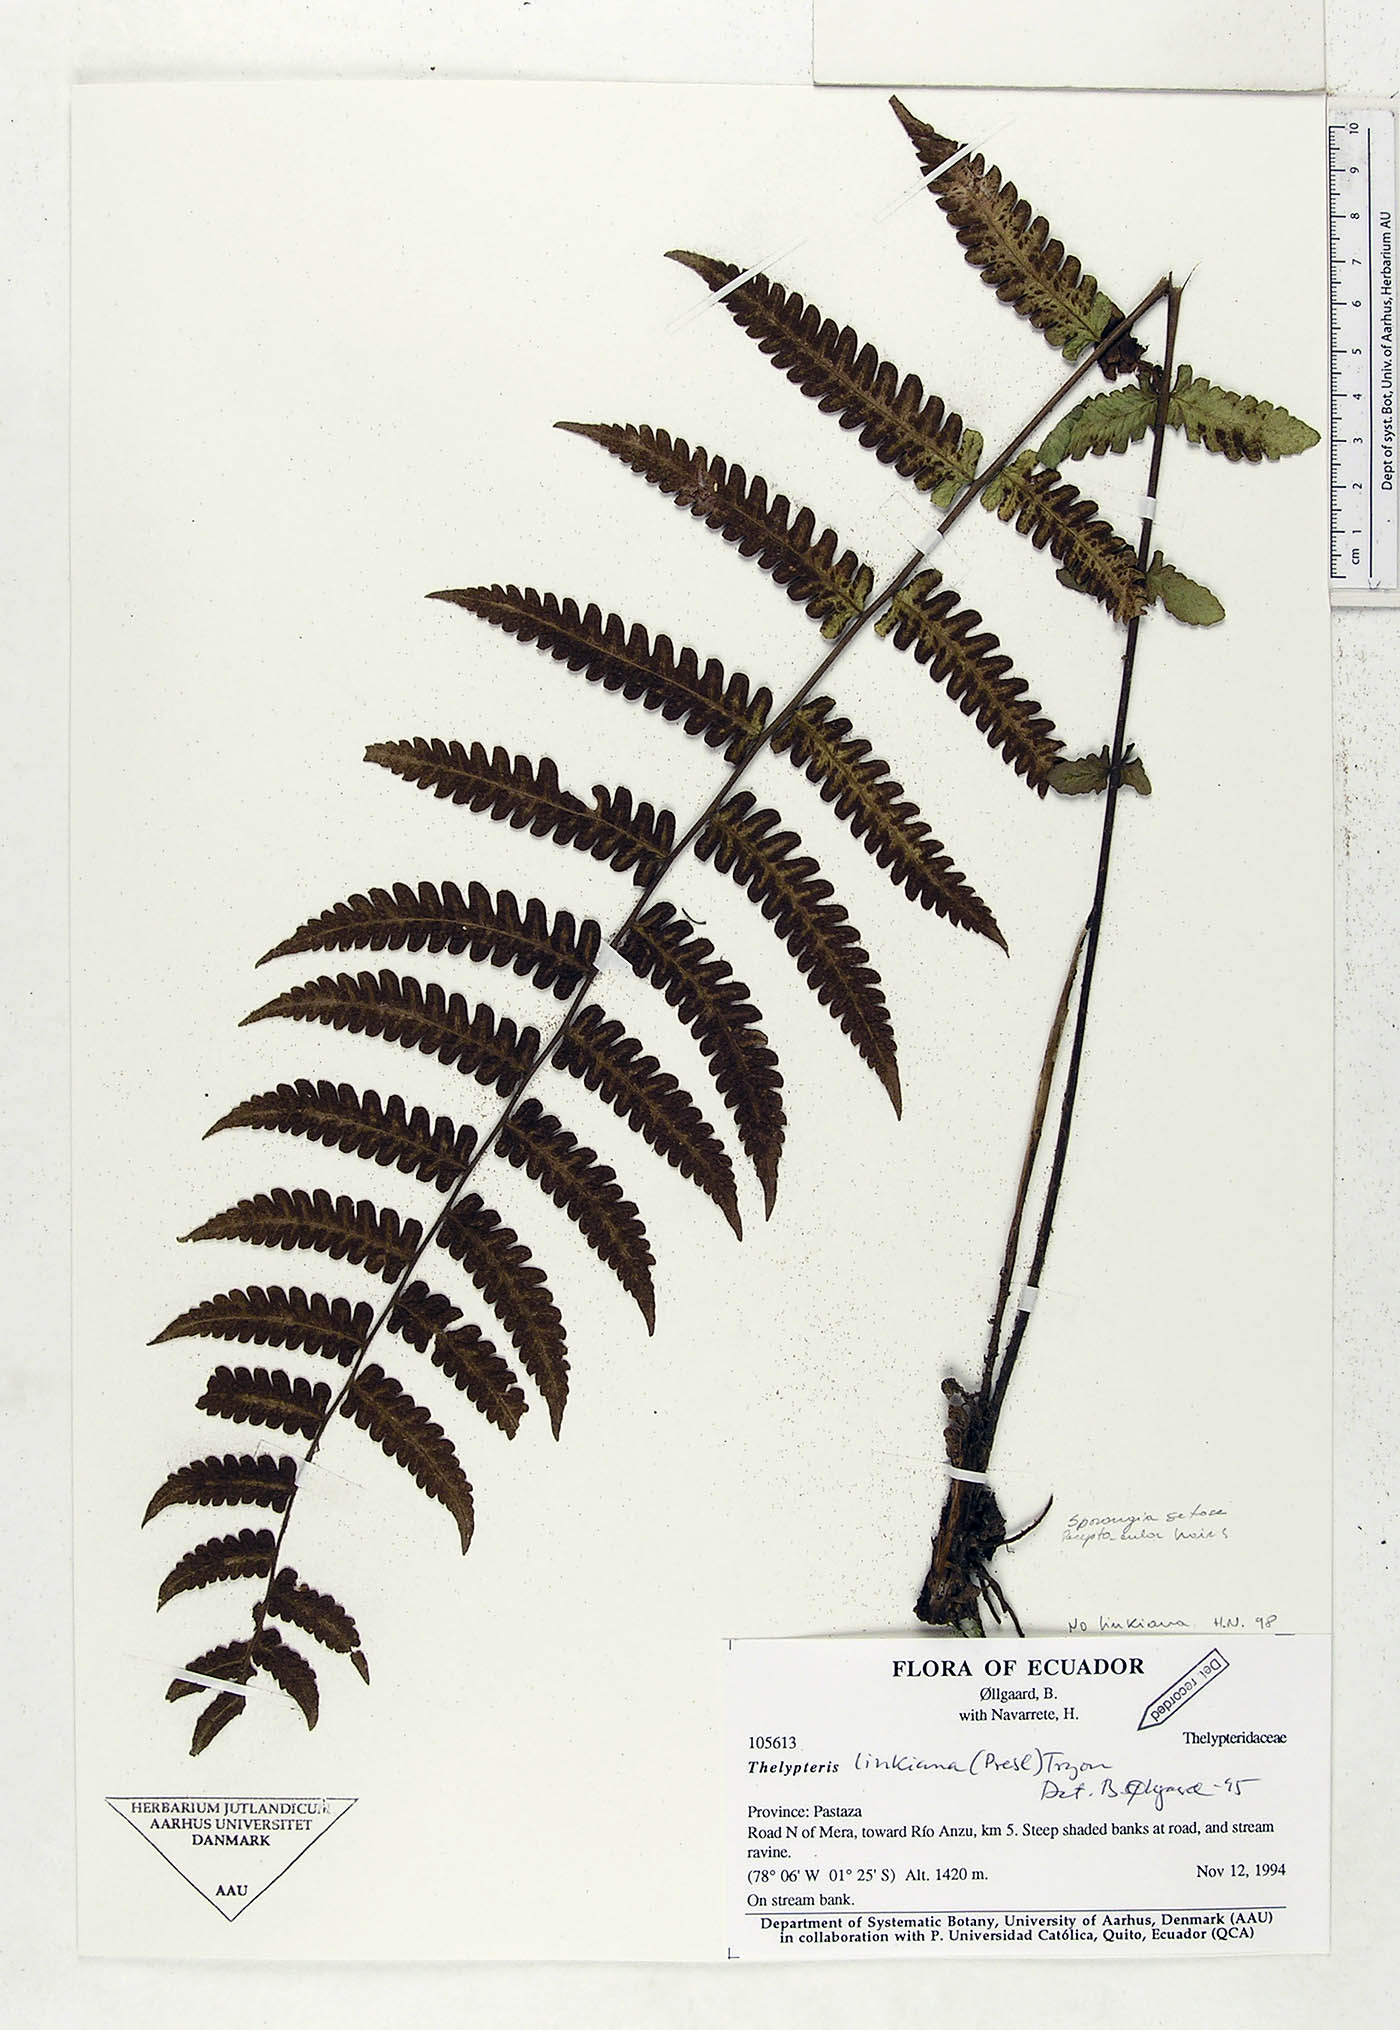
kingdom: Plantae
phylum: Tracheophyta
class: Polypodiopsida
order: Polypodiales
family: Thelypteridaceae
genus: Amauropelta
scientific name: Amauropelta diplazioides
